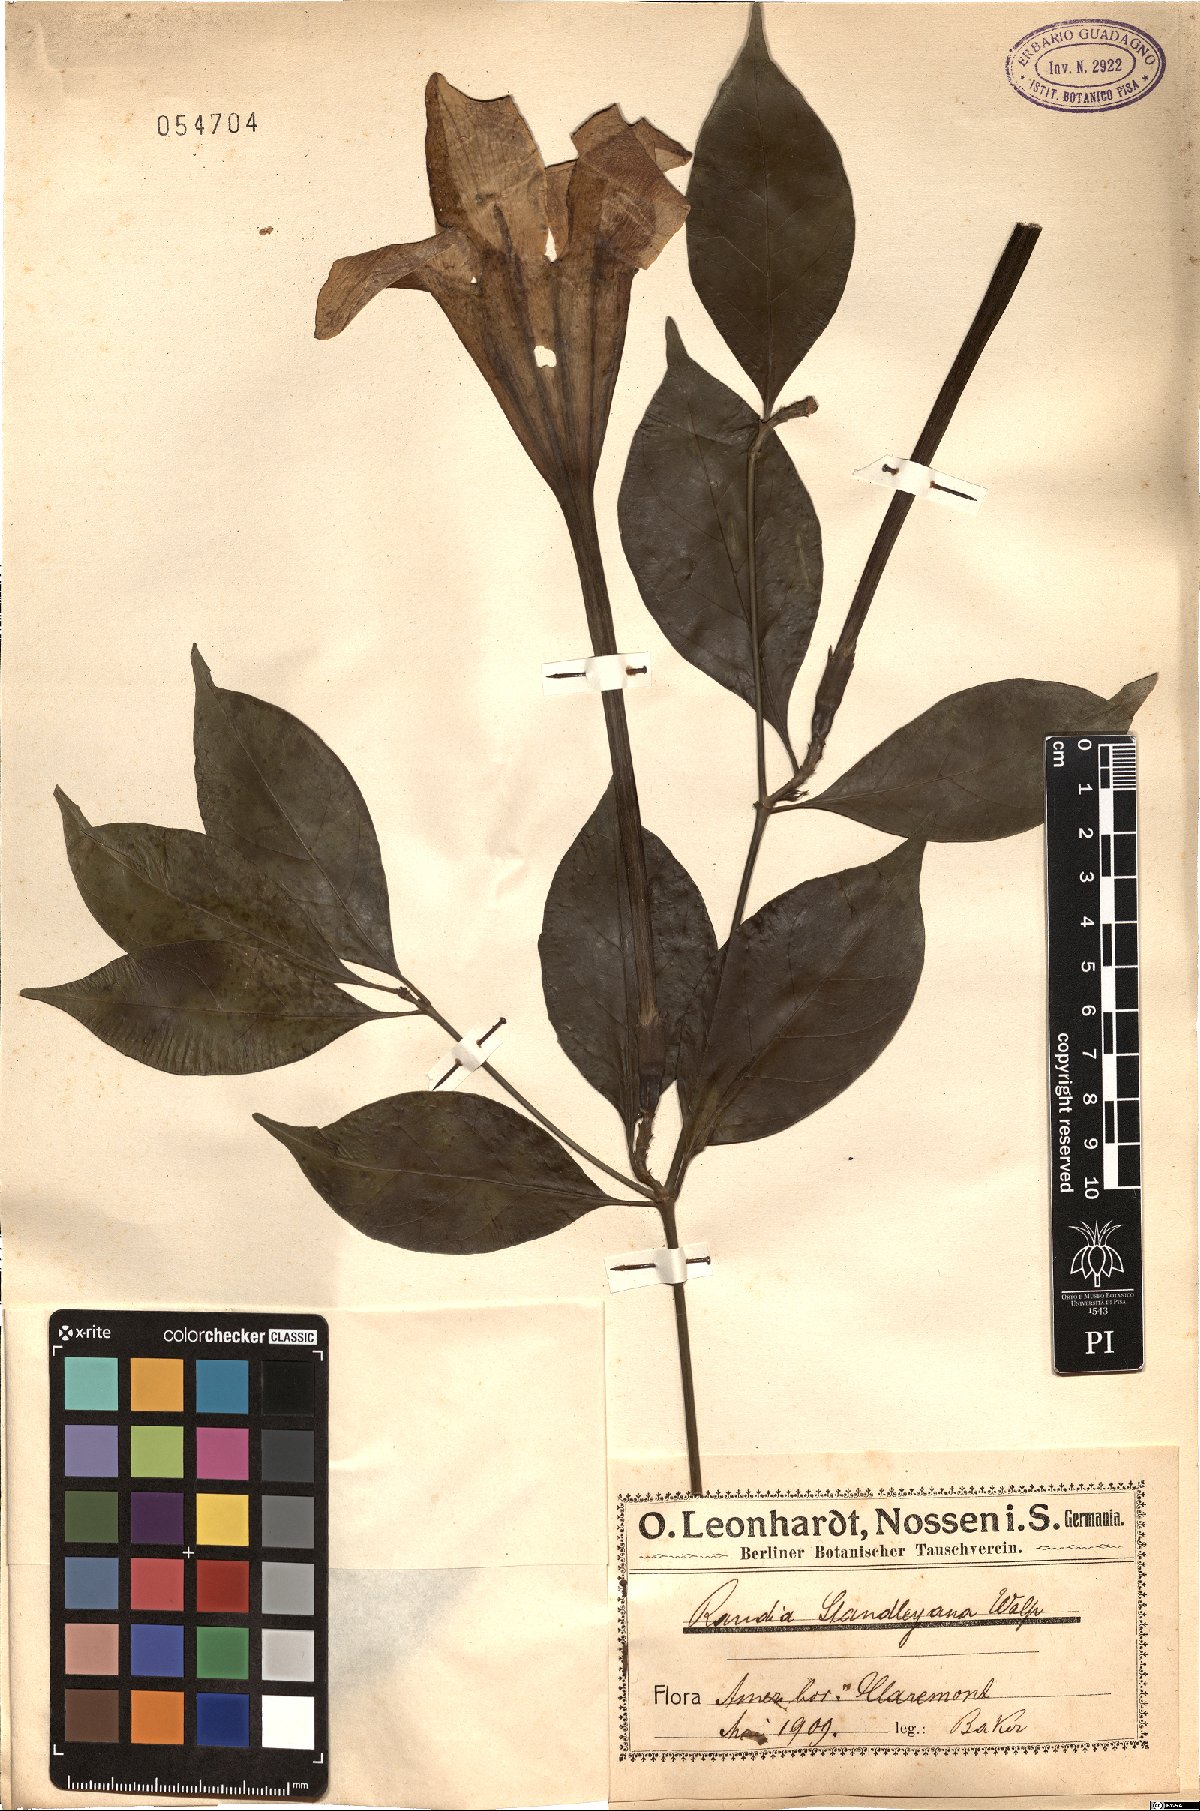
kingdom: Plantae
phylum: Tracheophyta
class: Magnoliopsida
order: Gentianales
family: Rubiaceae
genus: Randia
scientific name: Randia aculeata
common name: Inkberry
